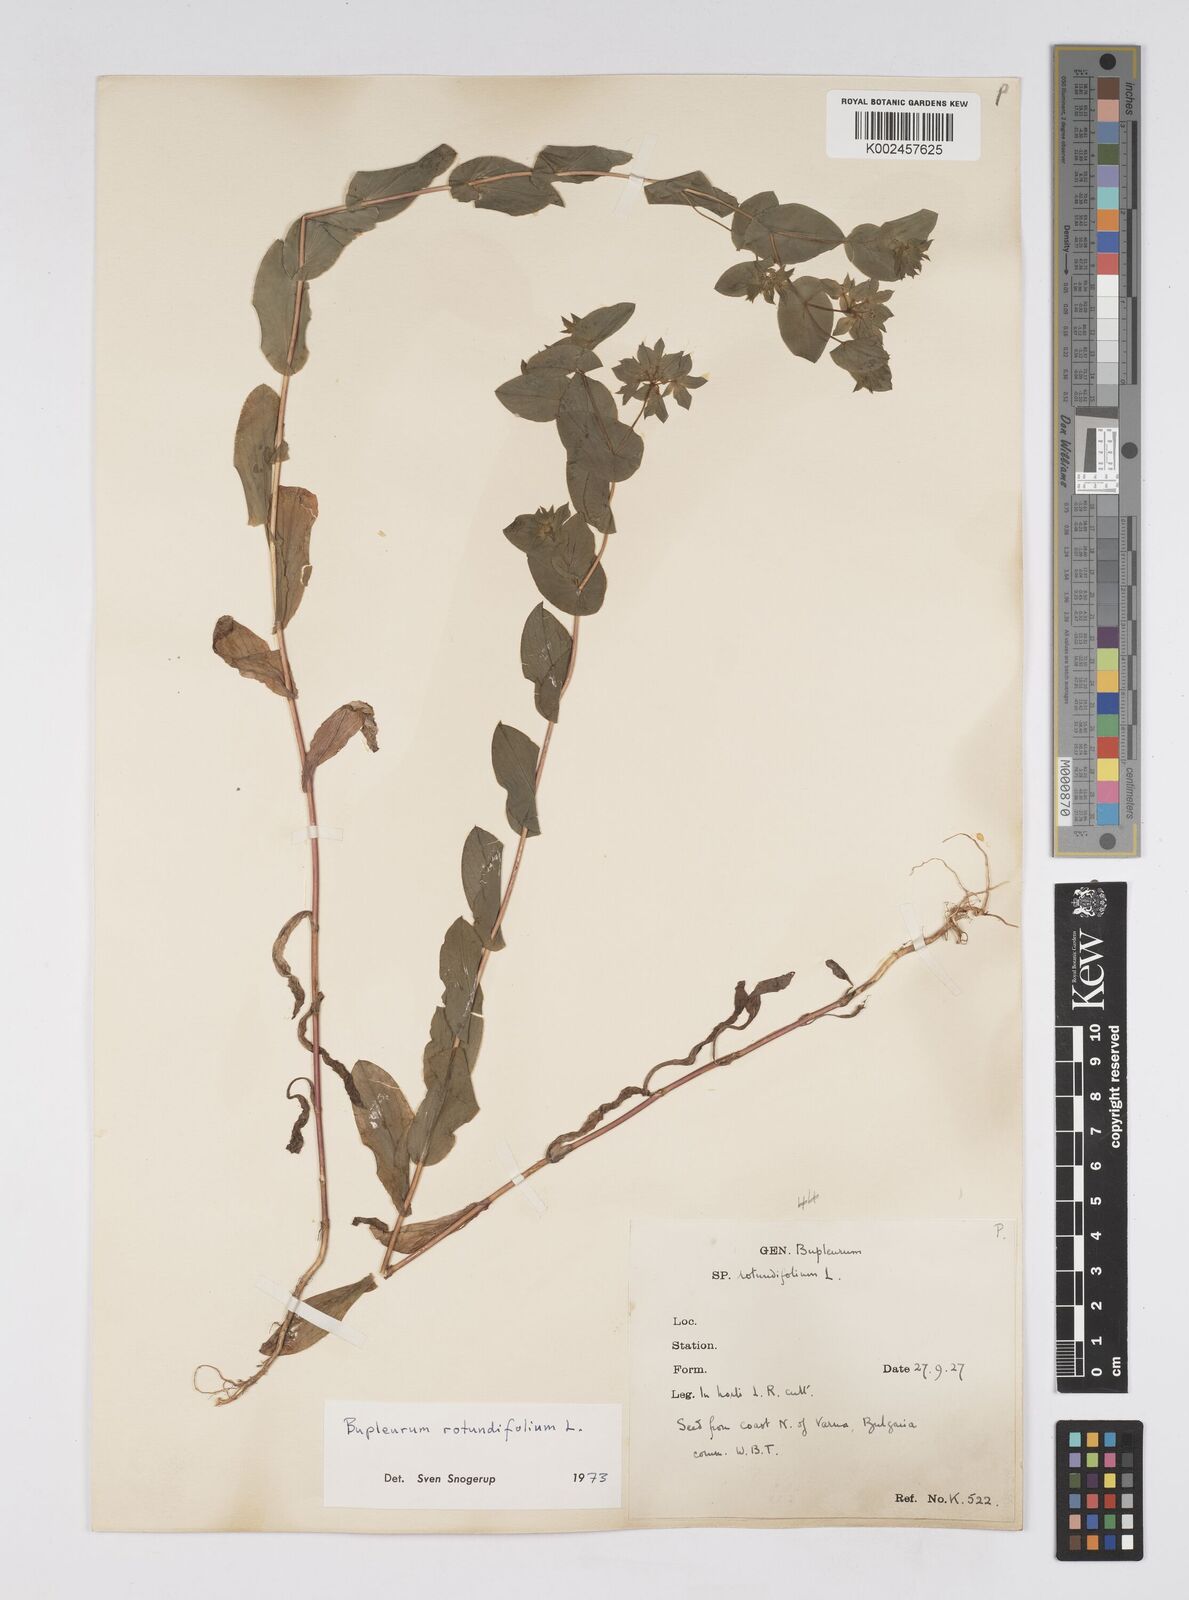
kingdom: Plantae
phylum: Tracheophyta
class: Magnoliopsida
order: Apiales
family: Apiaceae
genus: Bupleurum
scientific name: Bupleurum rotundifolium
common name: Thorow-wax
